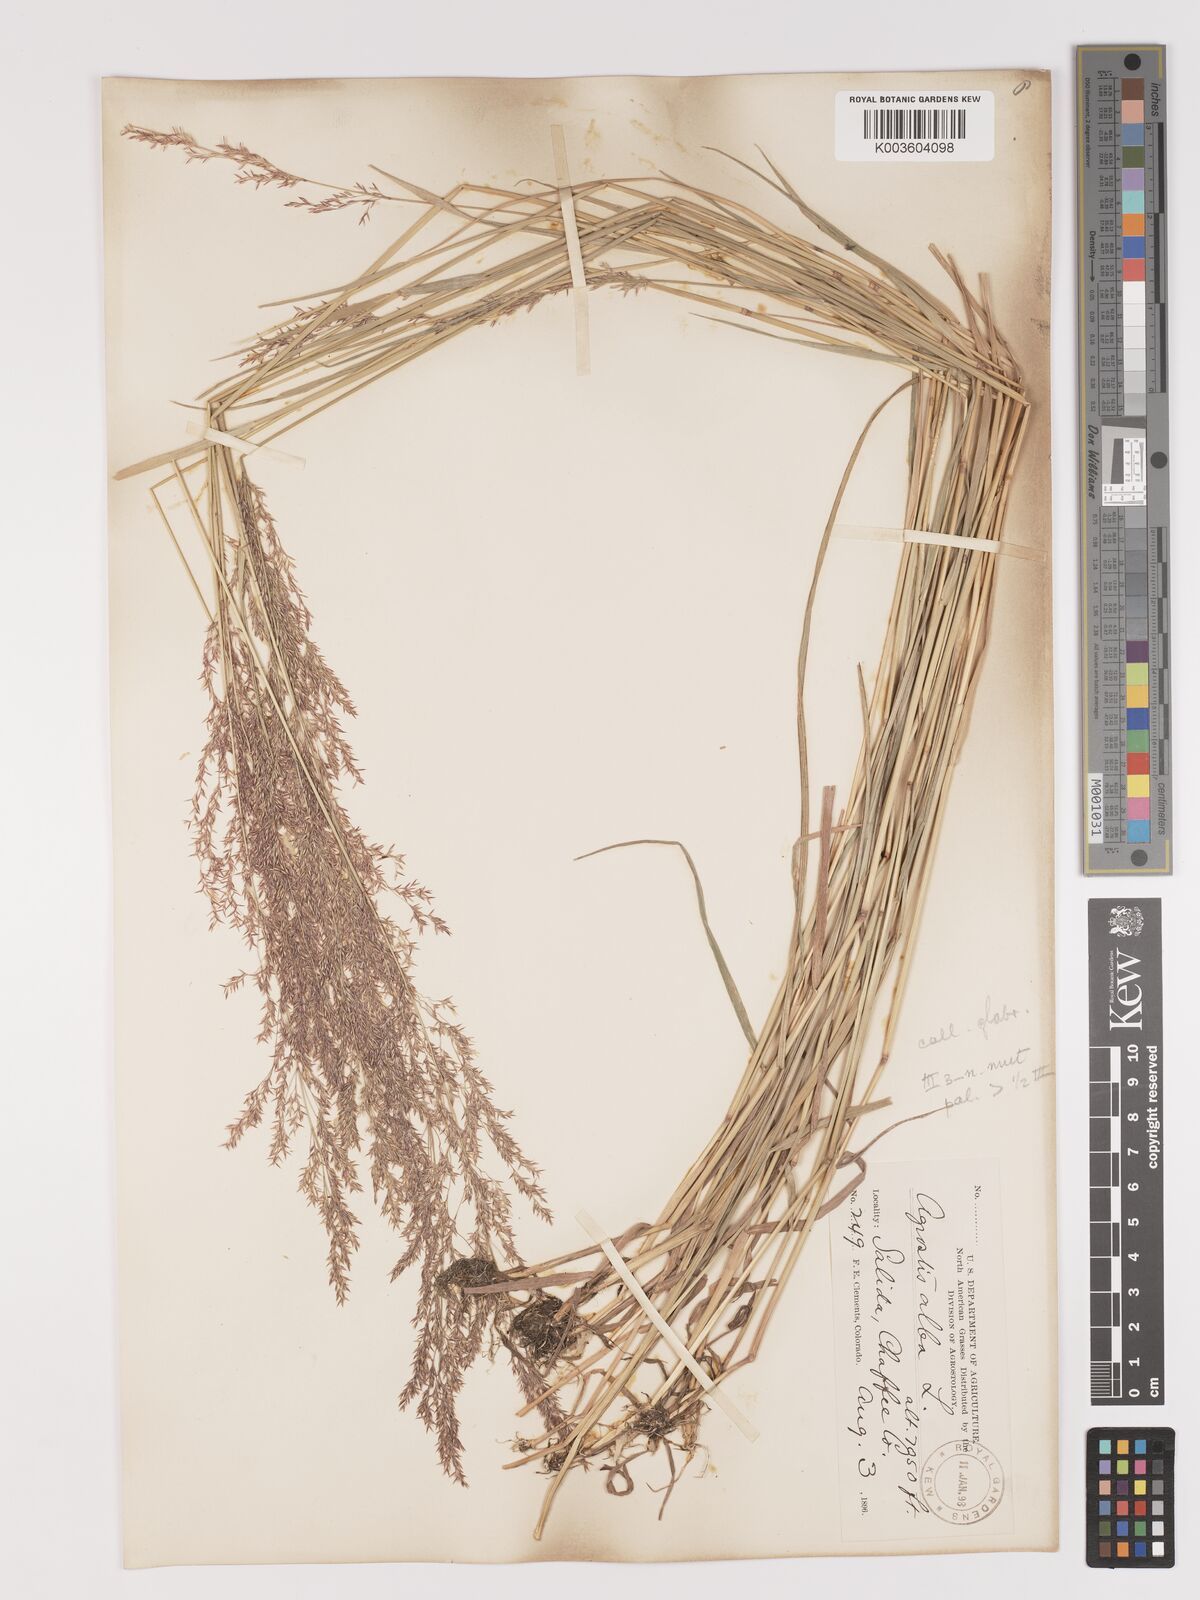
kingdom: Plantae
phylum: Tracheophyta
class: Liliopsida
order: Poales
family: Poaceae
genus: Agrostis
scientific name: Agrostis gigantea
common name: Black bent
